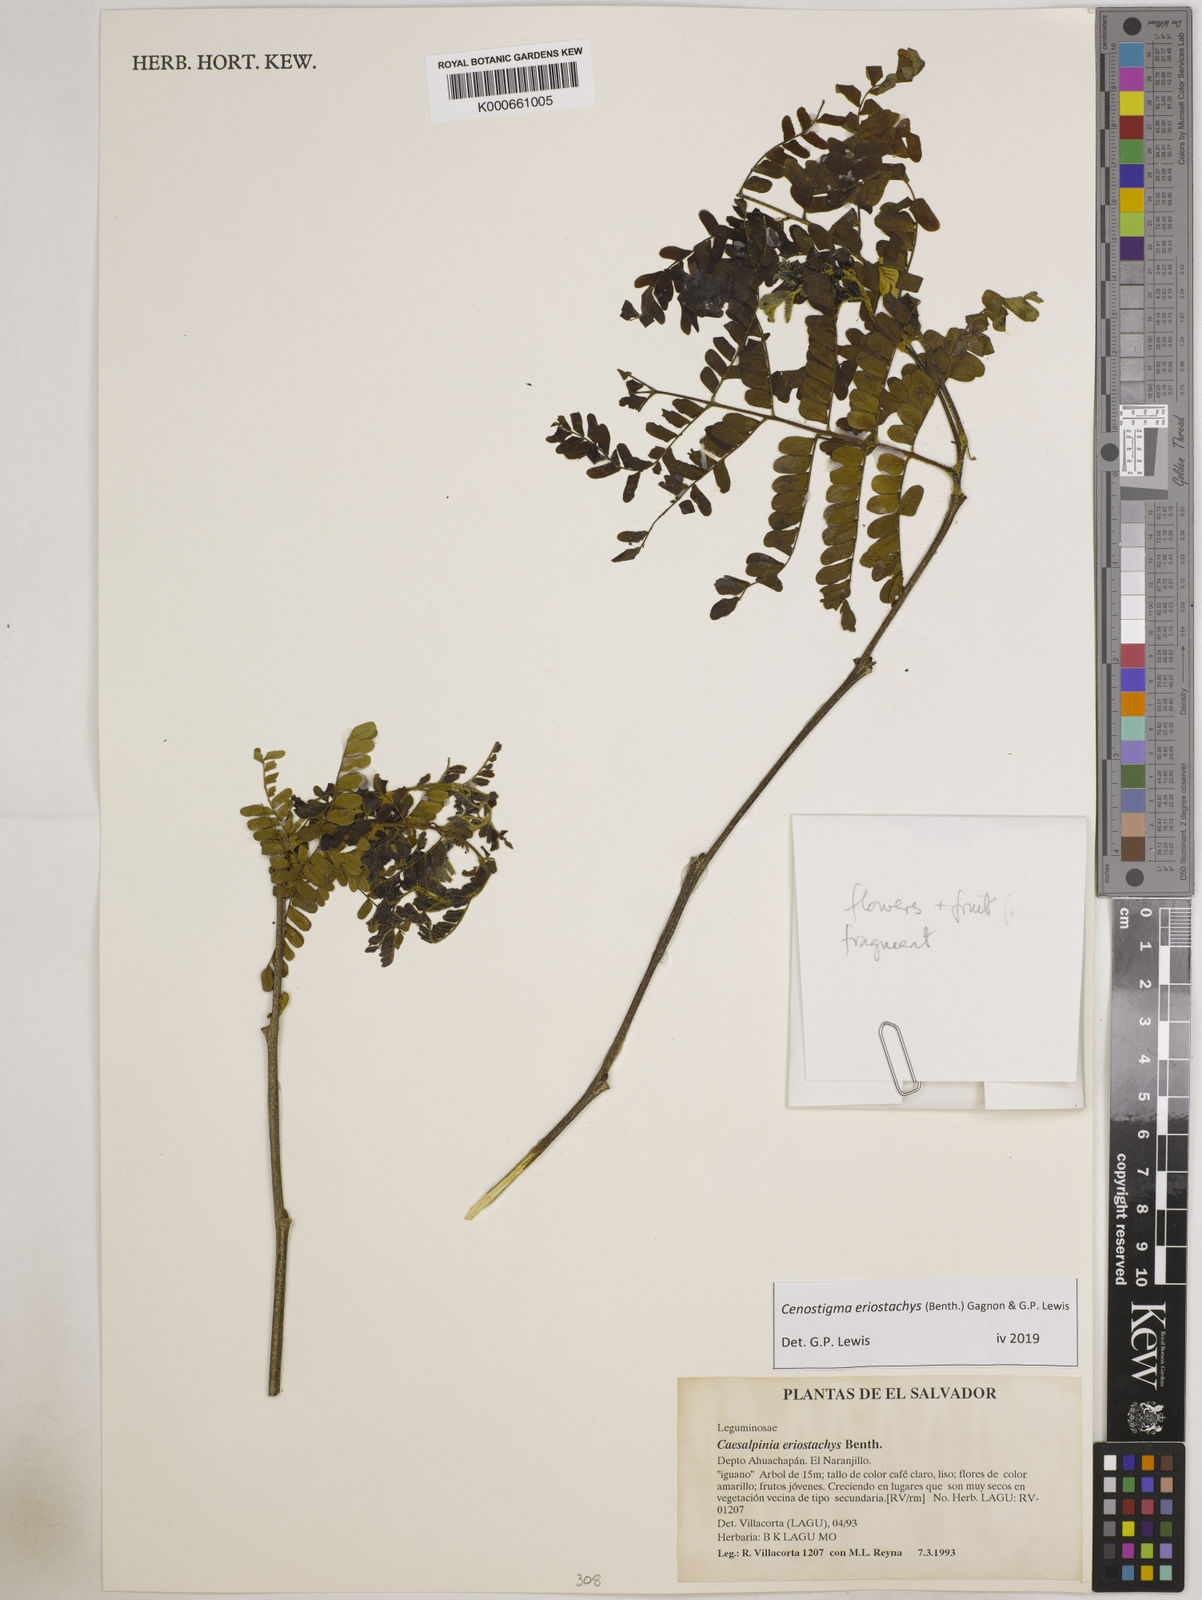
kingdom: Plantae
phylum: Tracheophyta
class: Magnoliopsida
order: Fabales
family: Fabaceae
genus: Cenostigma
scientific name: Cenostigma eriostachys
